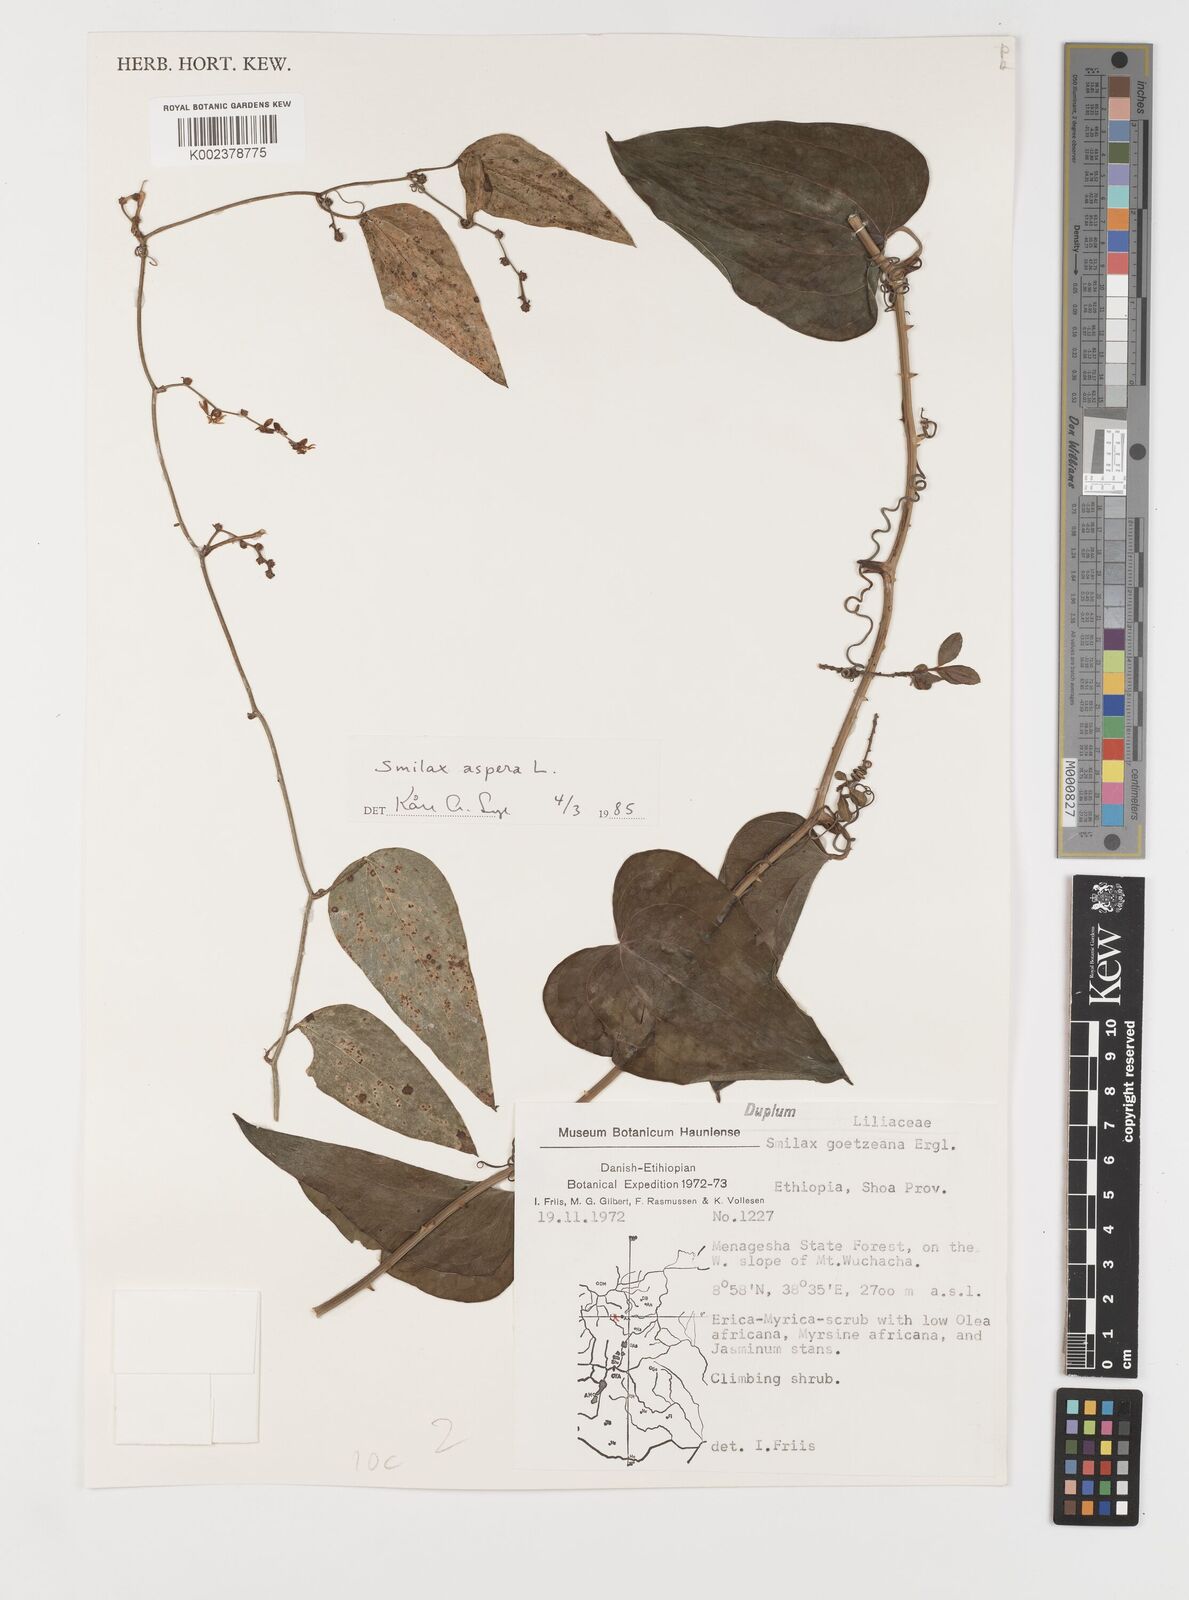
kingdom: Plantae
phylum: Tracheophyta
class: Liliopsida
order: Liliales
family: Smilacaceae
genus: Smilax
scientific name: Smilax aspera
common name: Common smilax
